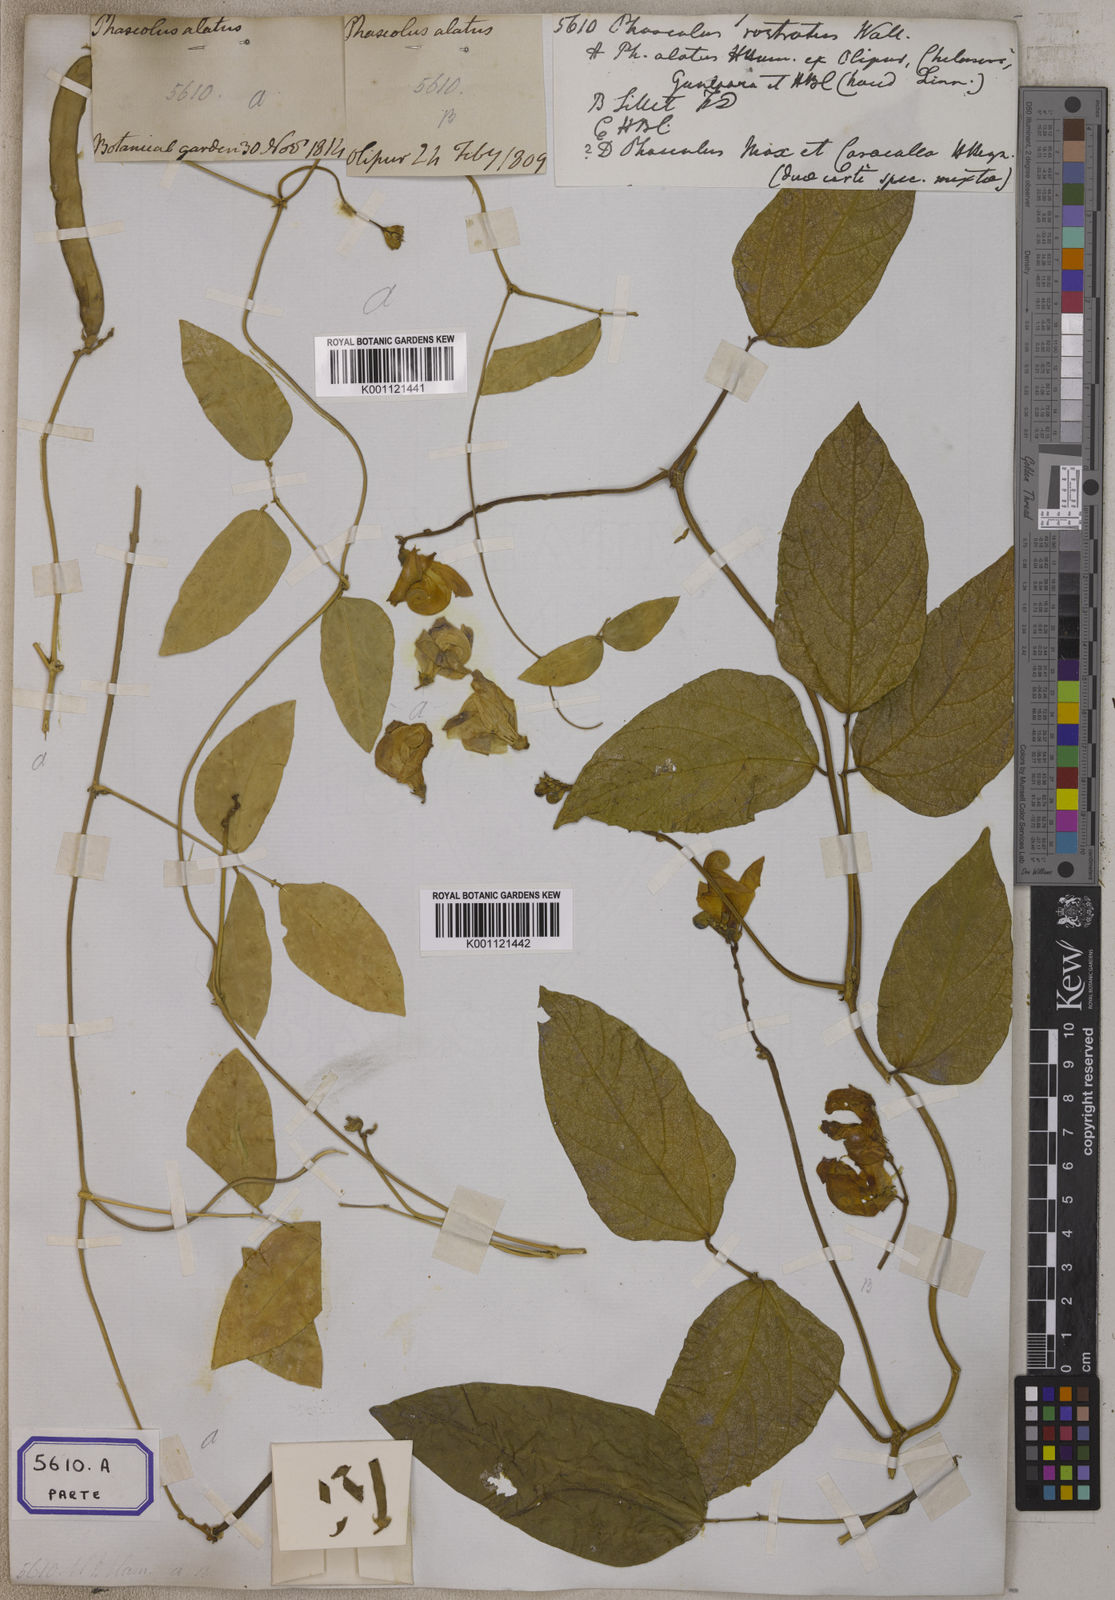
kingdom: Plantae
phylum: Tracheophyta
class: Magnoliopsida
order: Fabales
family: Fabaceae
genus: Leptospron
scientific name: Leptospron adenanthum
